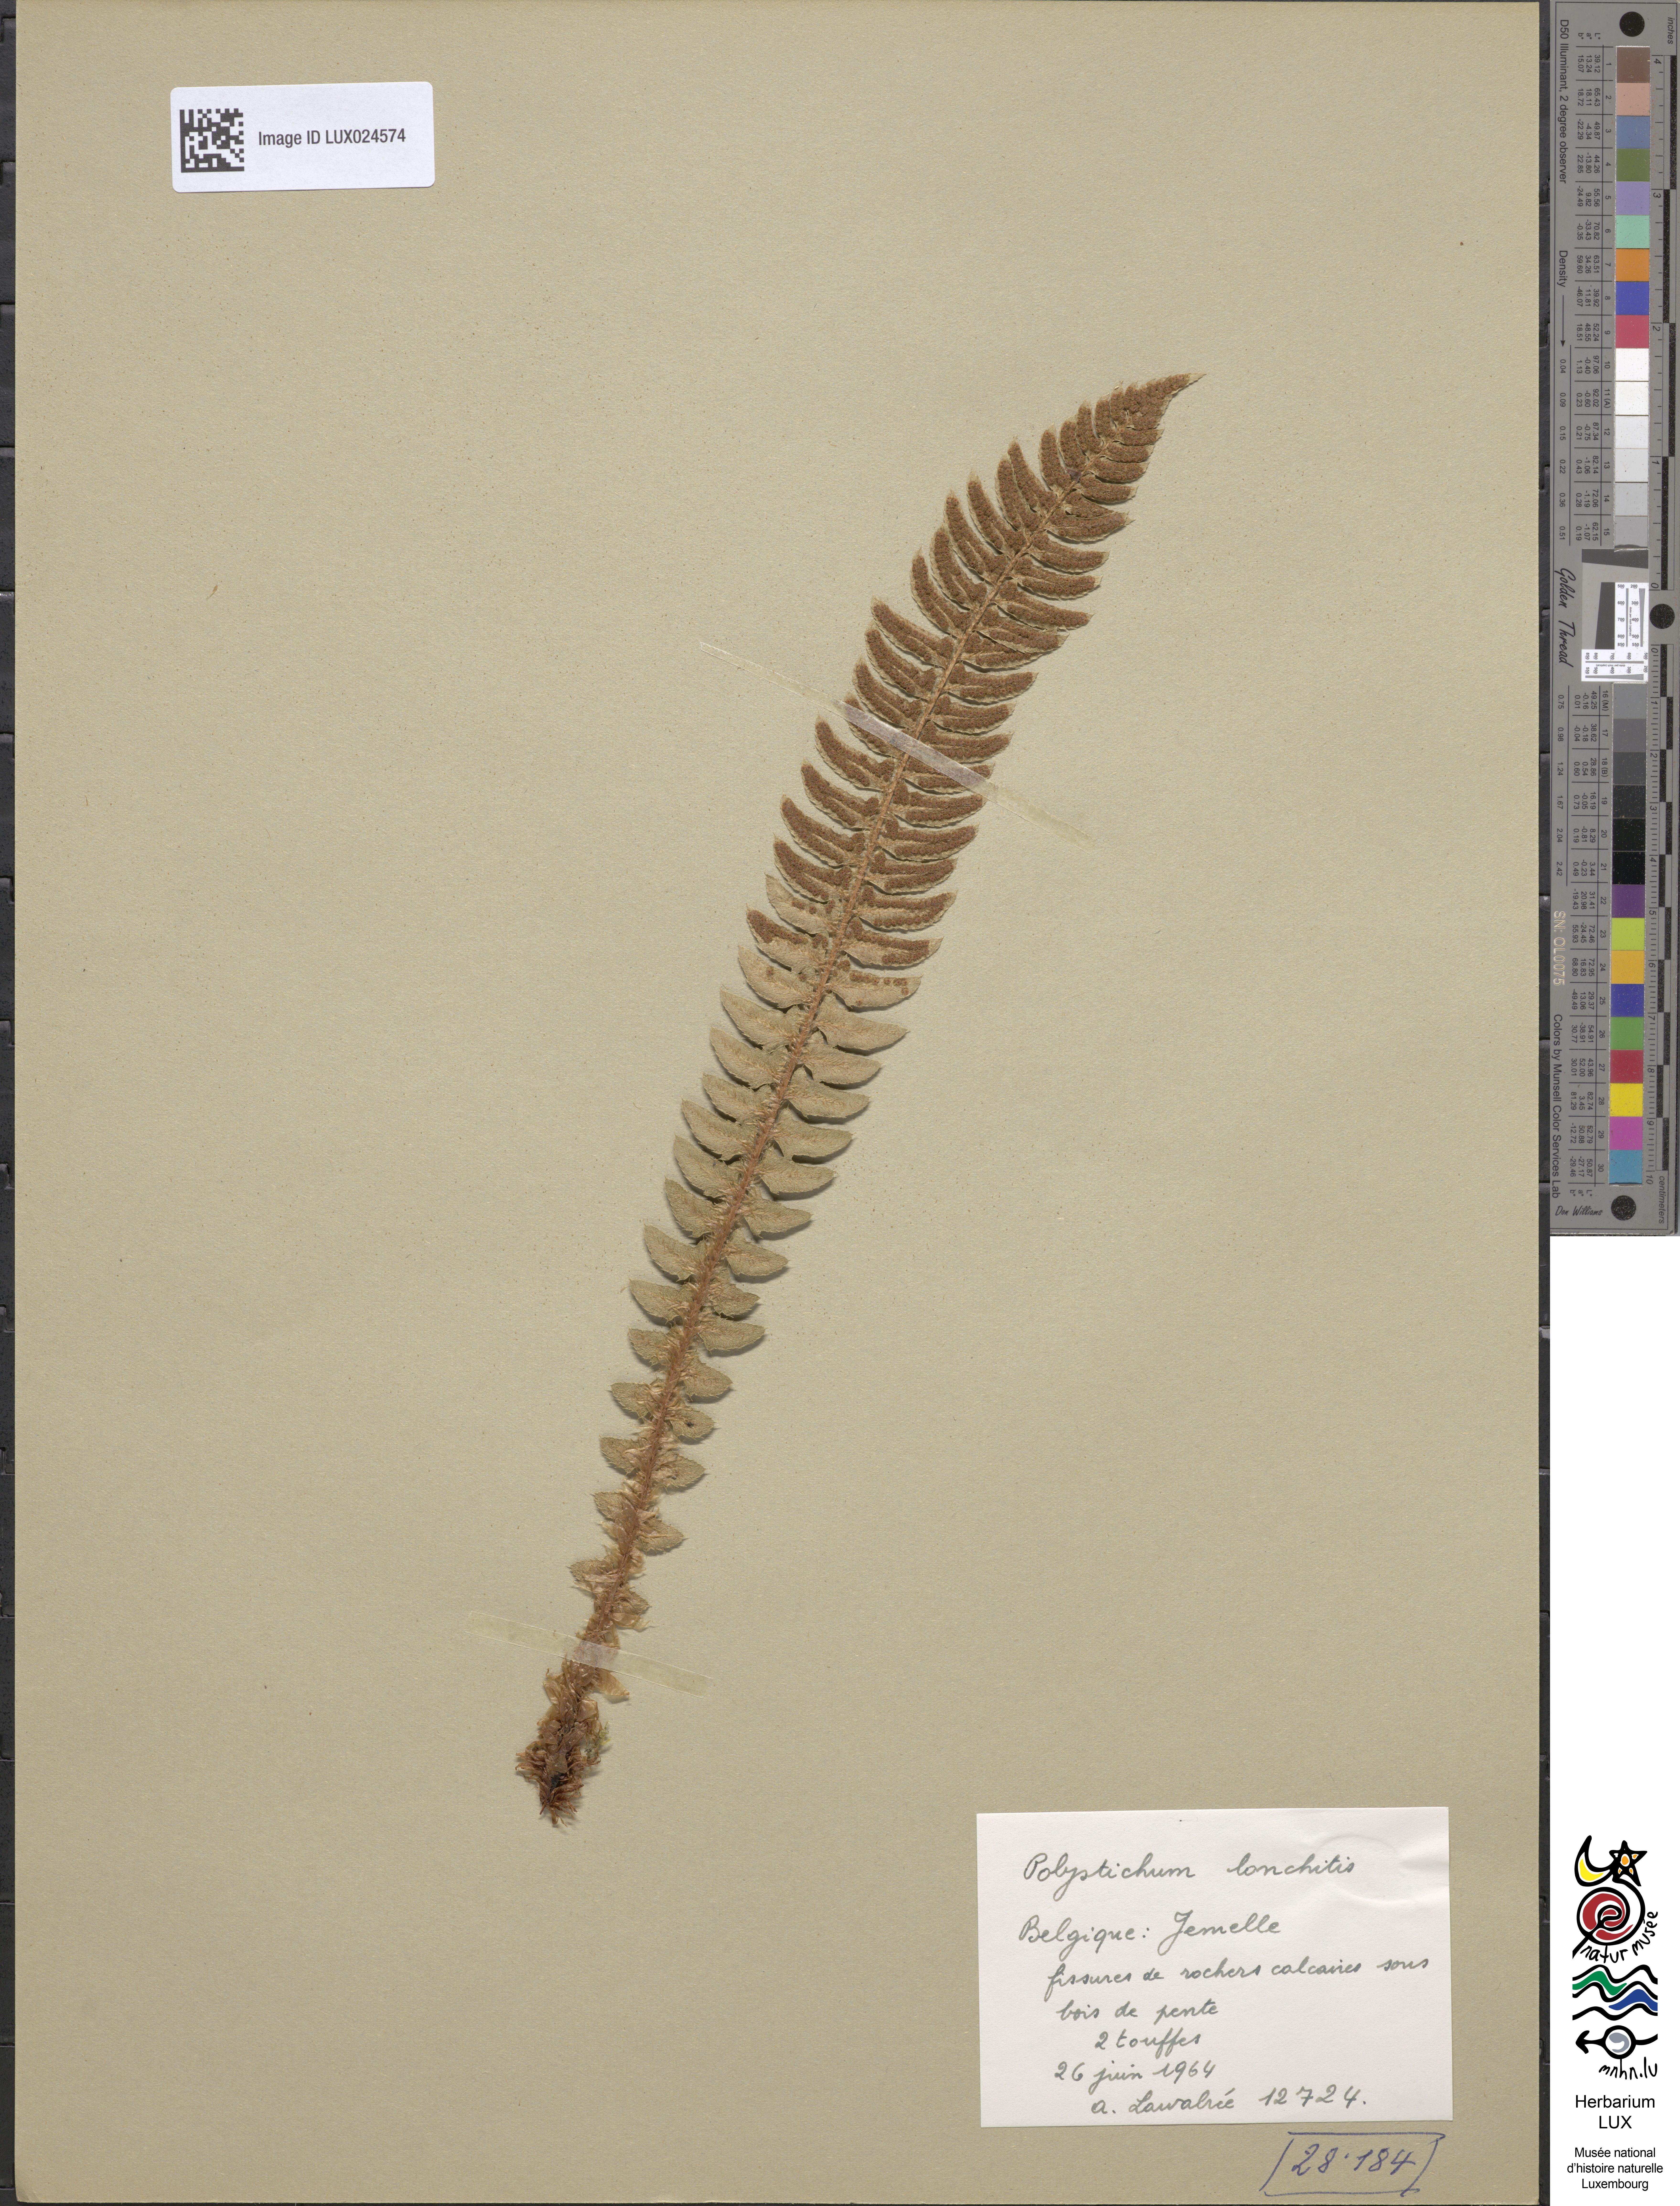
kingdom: Plantae
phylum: Tracheophyta
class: Polypodiopsida
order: Polypodiales
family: Dryopteridaceae
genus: Polystichum
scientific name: Polystichum lonchitis
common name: Holly fern
